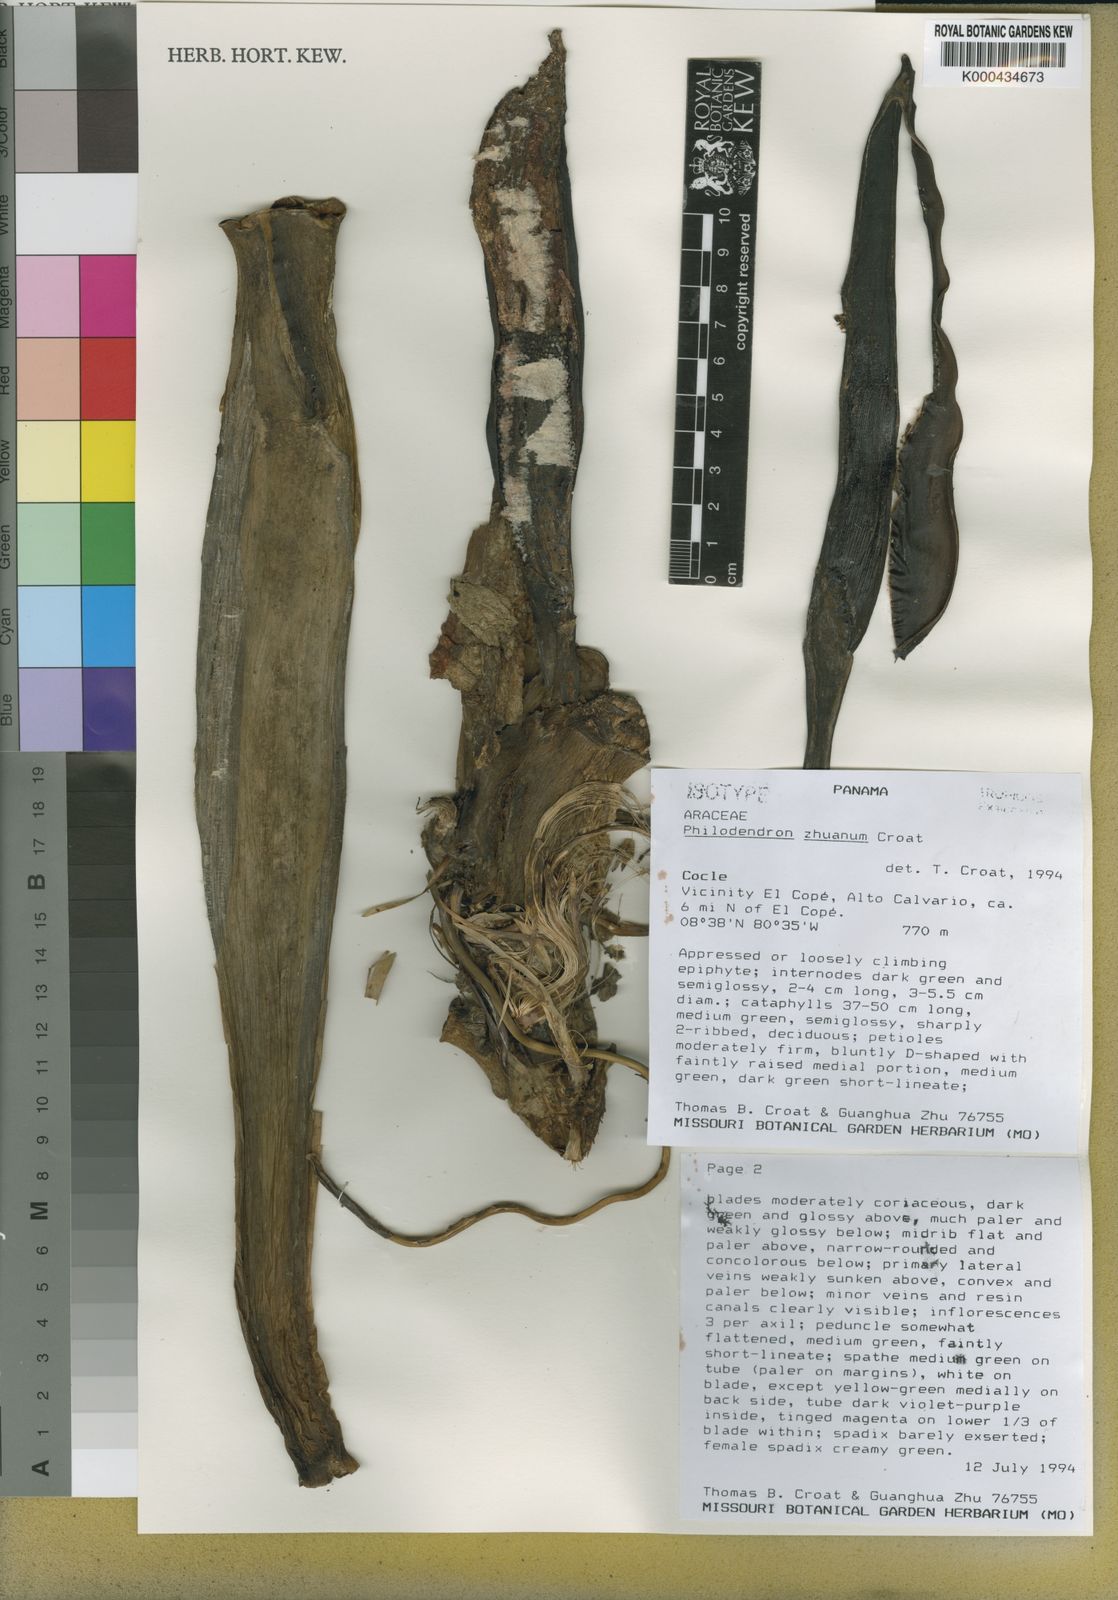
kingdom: Plantae
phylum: Tracheophyta
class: Liliopsida
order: Alismatales
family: Araceae
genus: Philodendron
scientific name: Philodendron zhuanum
